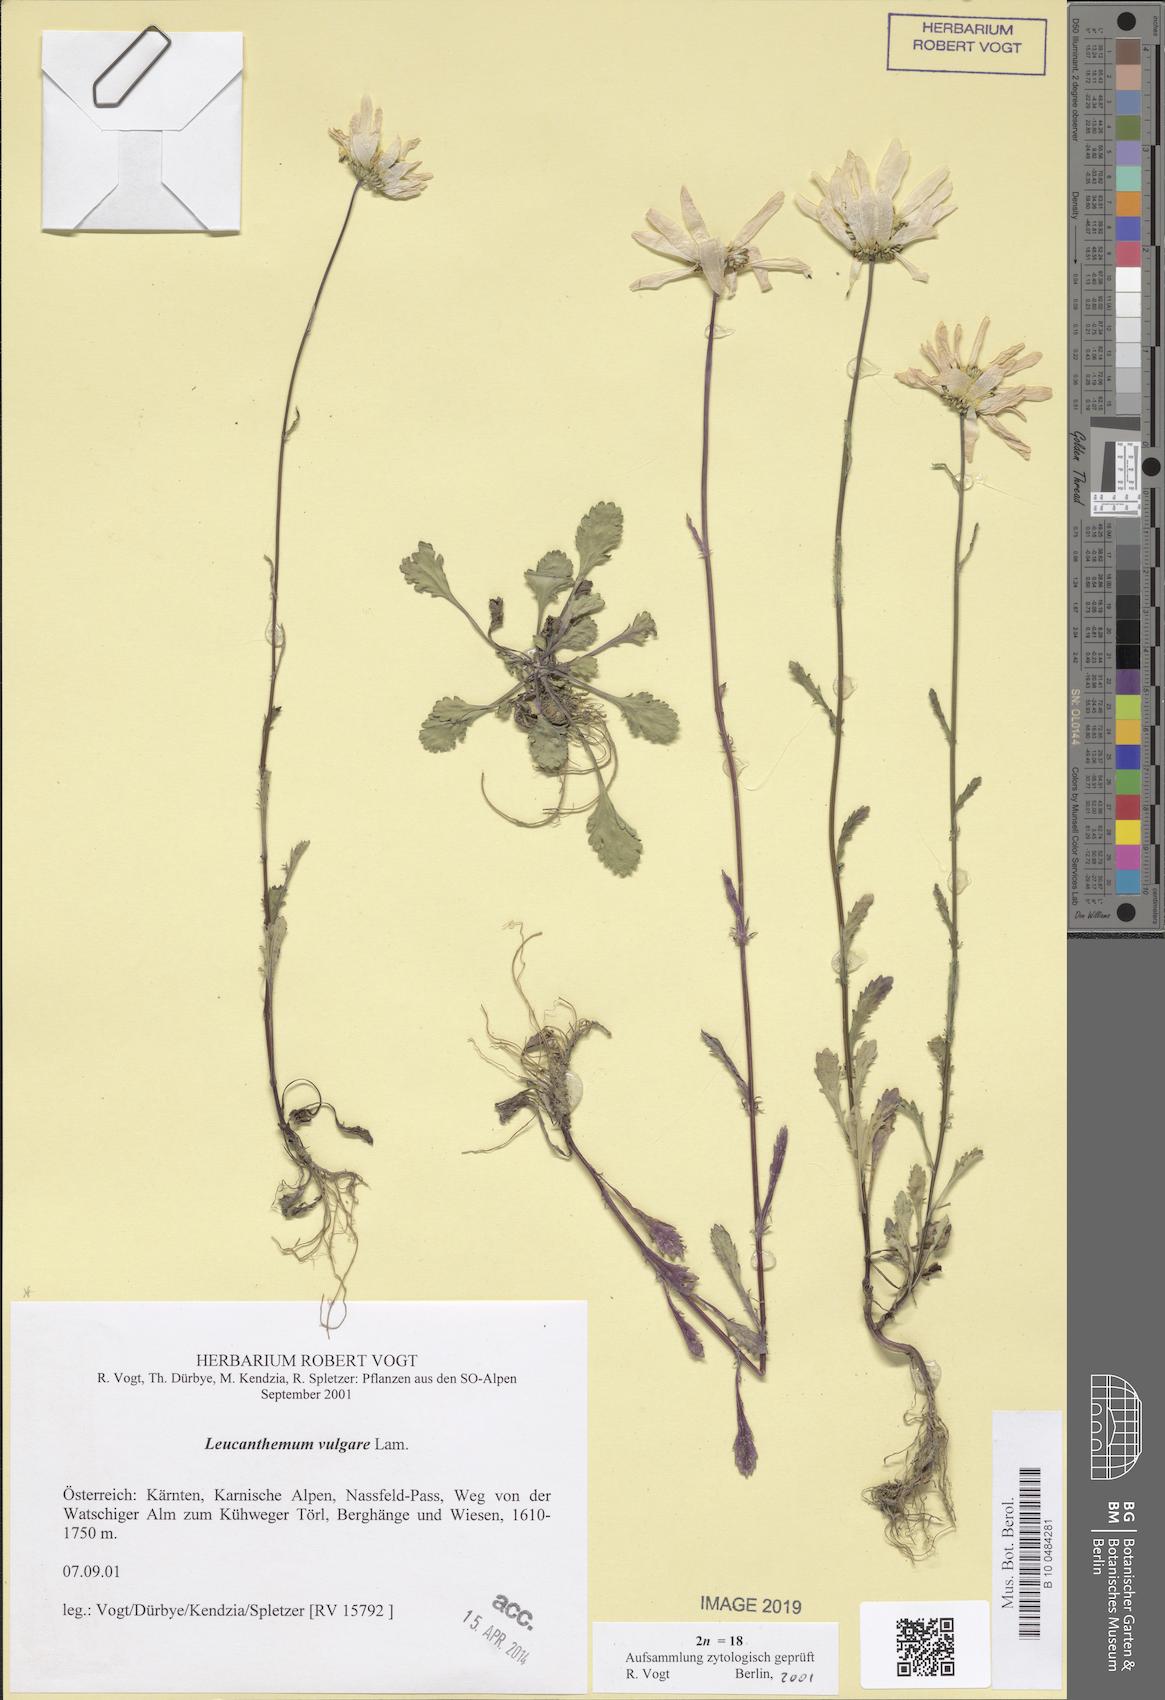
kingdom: Plantae
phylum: Tracheophyta
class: Magnoliopsida
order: Asterales
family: Asteraceae
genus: Leucanthemum
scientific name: Leucanthemum vulgare
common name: Oxeye daisy
